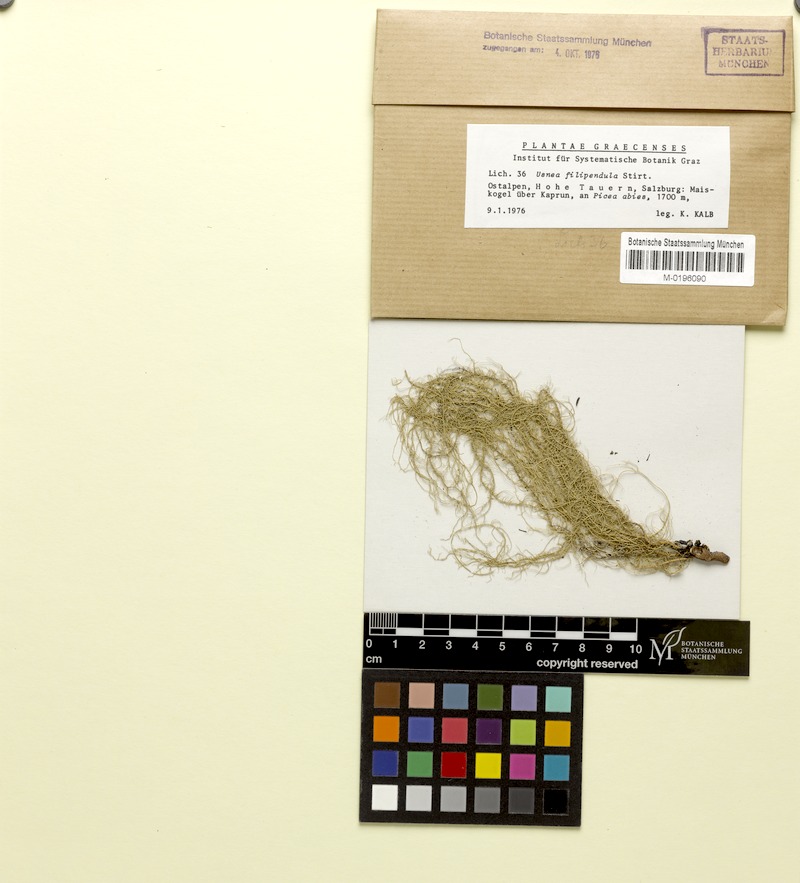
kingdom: Fungi
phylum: Ascomycota
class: Lecanoromycetes
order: Lecanorales
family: Parmeliaceae
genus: Usnea
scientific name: Usnea filipendula
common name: Fishbone beard lichen
